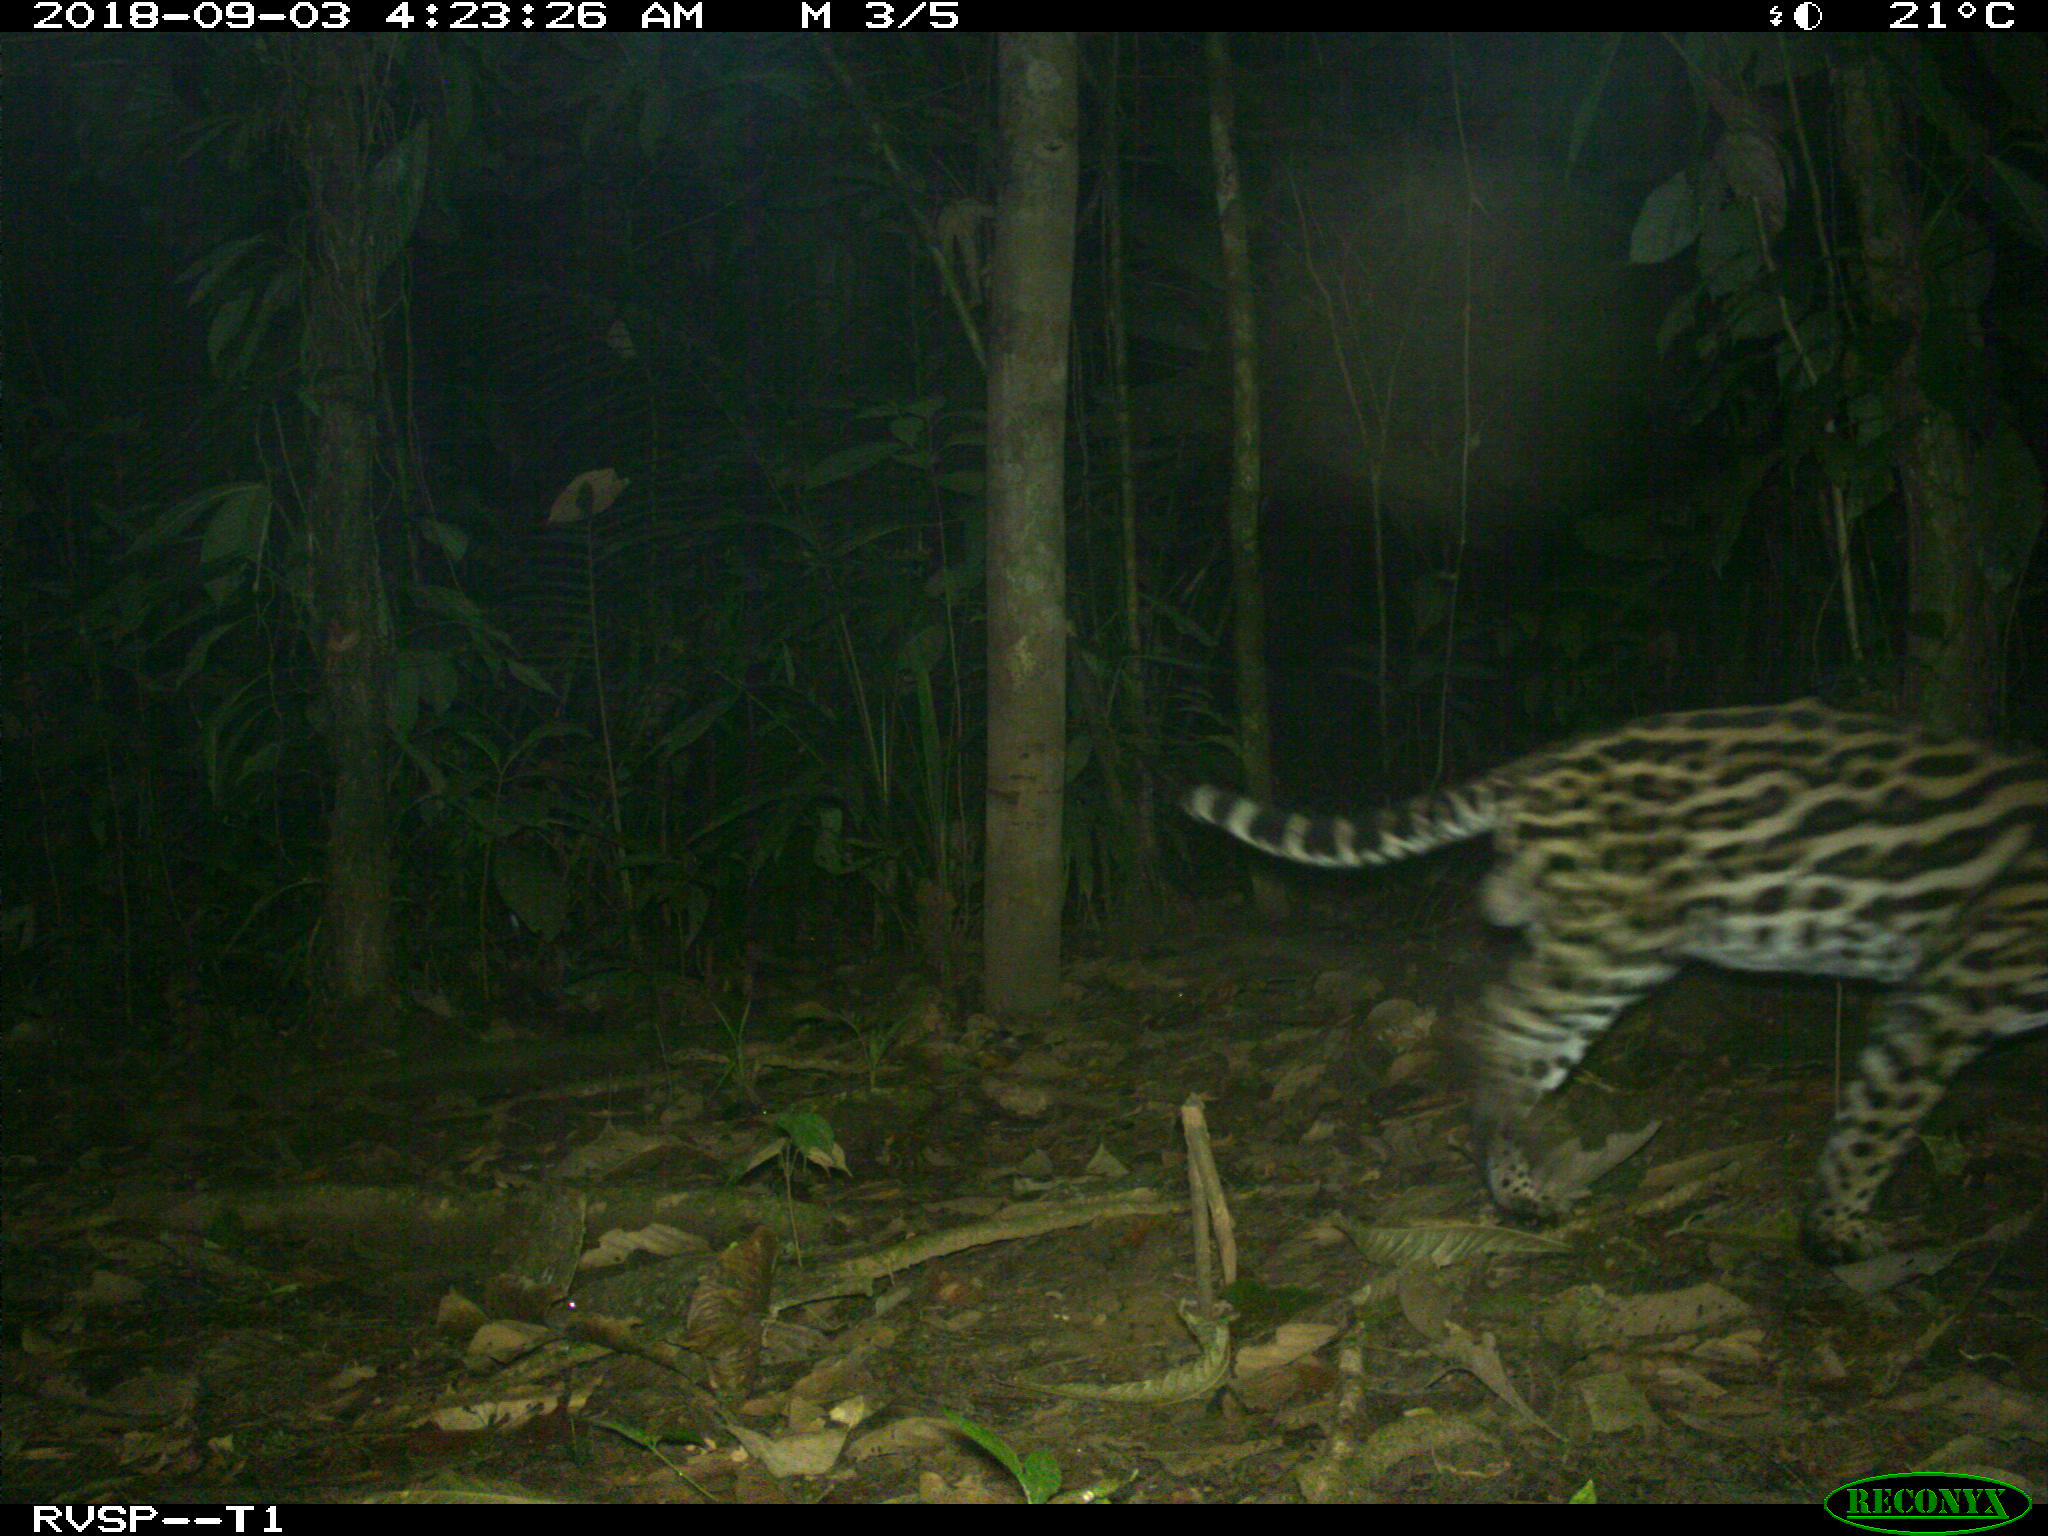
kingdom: Animalia
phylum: Chordata
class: Mammalia
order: Carnivora
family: Felidae
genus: Leopardus
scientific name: Leopardus pardalis
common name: Ocelot
